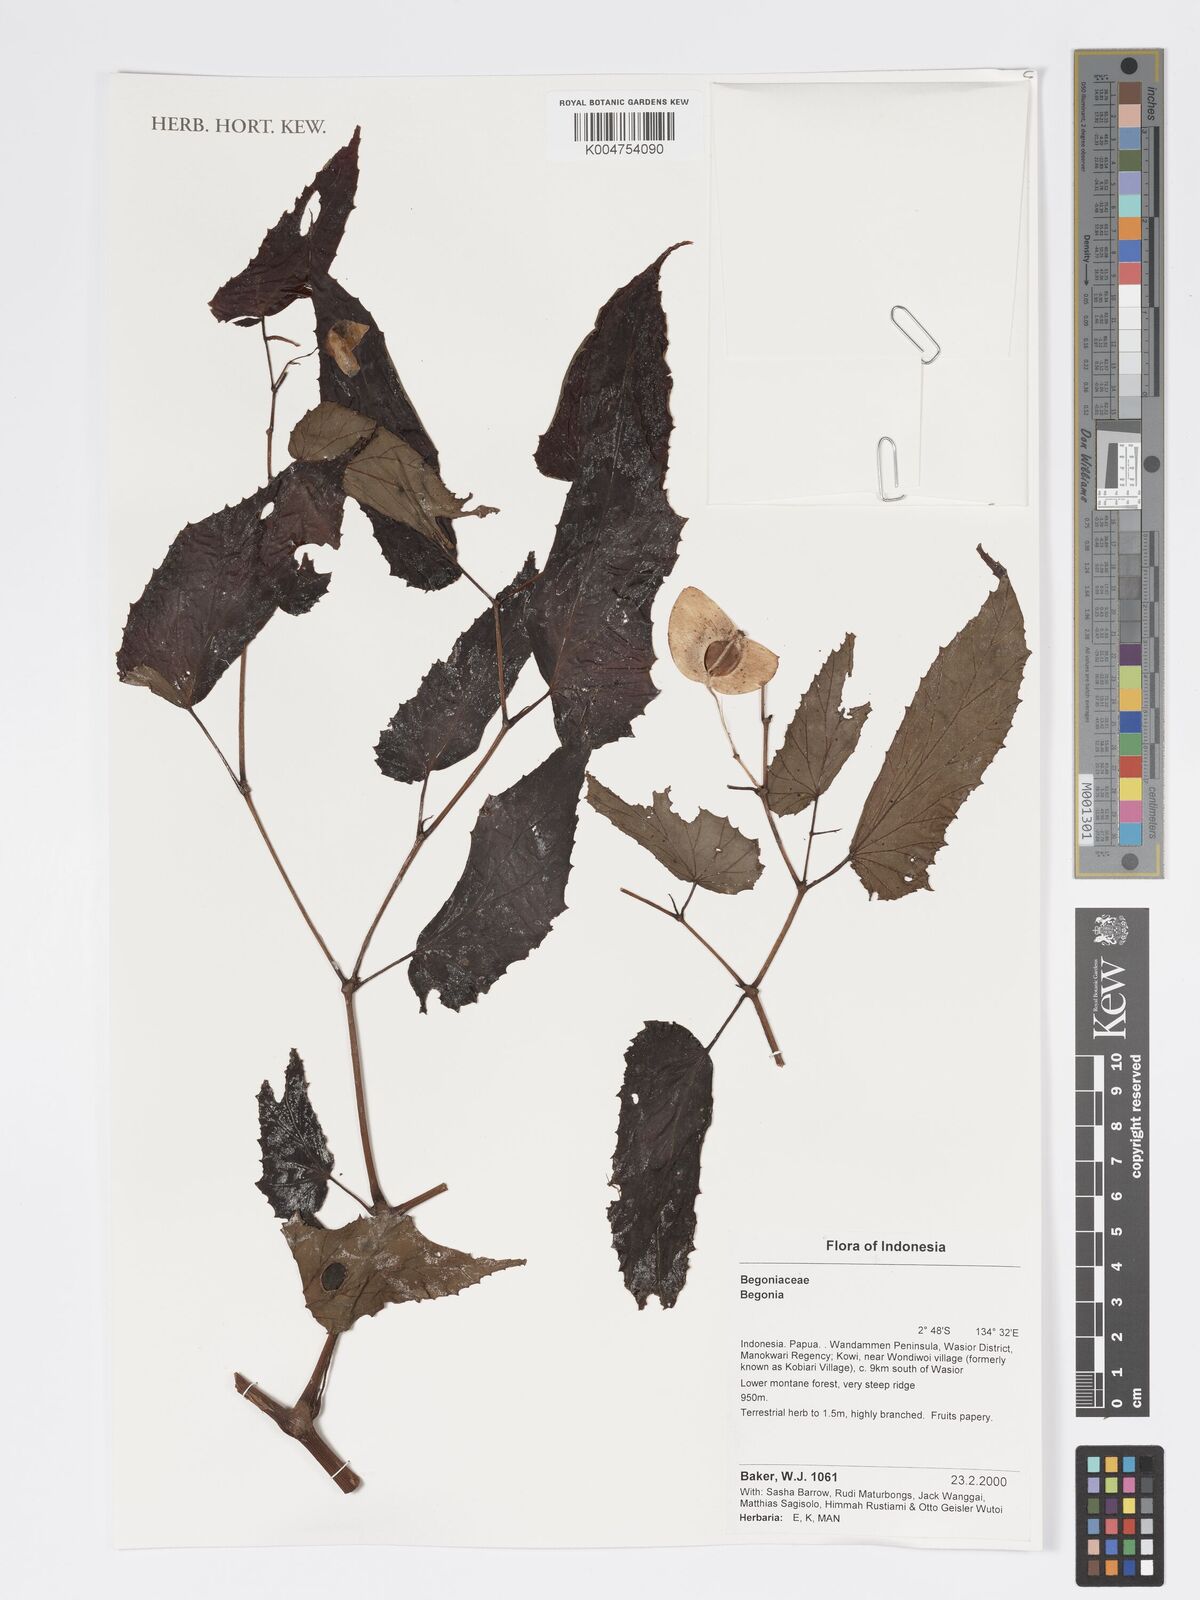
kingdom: Plantae
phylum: Tracheophyta
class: Magnoliopsida
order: Cucurbitales
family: Begoniaceae
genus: Begonia
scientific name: Begonia
